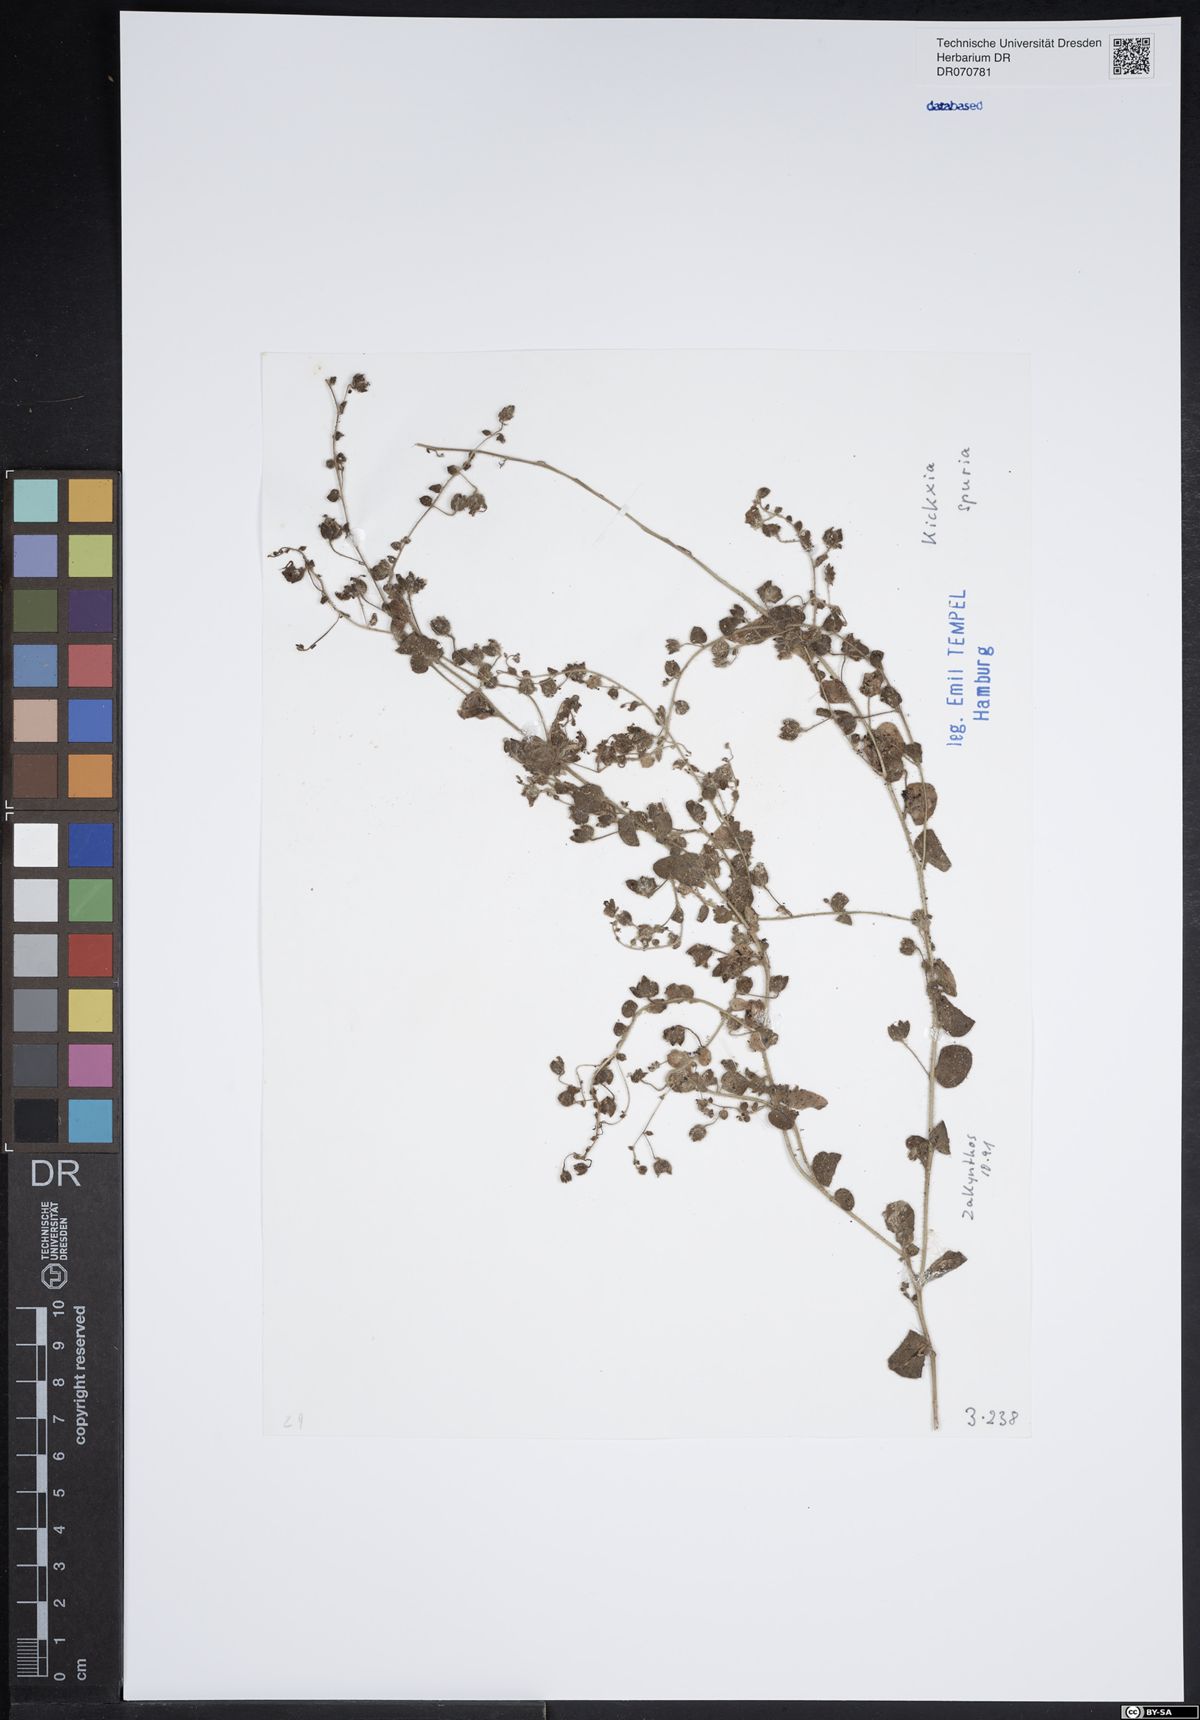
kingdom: Plantae
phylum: Tracheophyta
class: Magnoliopsida
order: Lamiales
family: Plantaginaceae
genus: Kickxia
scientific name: Kickxia spuria
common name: Round-leaved fluellen
